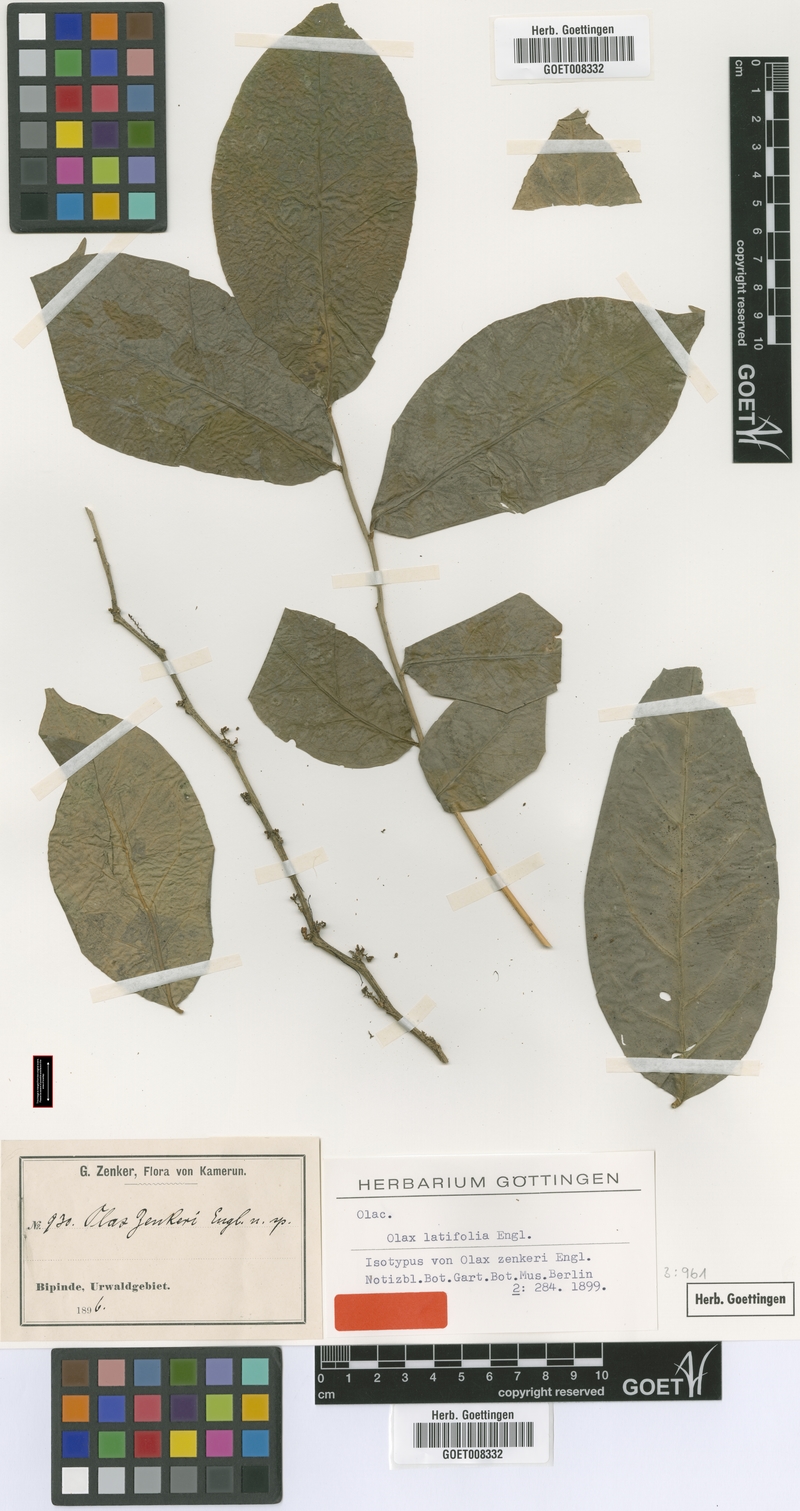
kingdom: Plantae
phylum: Tracheophyta
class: Magnoliopsida
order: Santalales
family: Olacaceae
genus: Olax
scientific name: Olax latifolia
